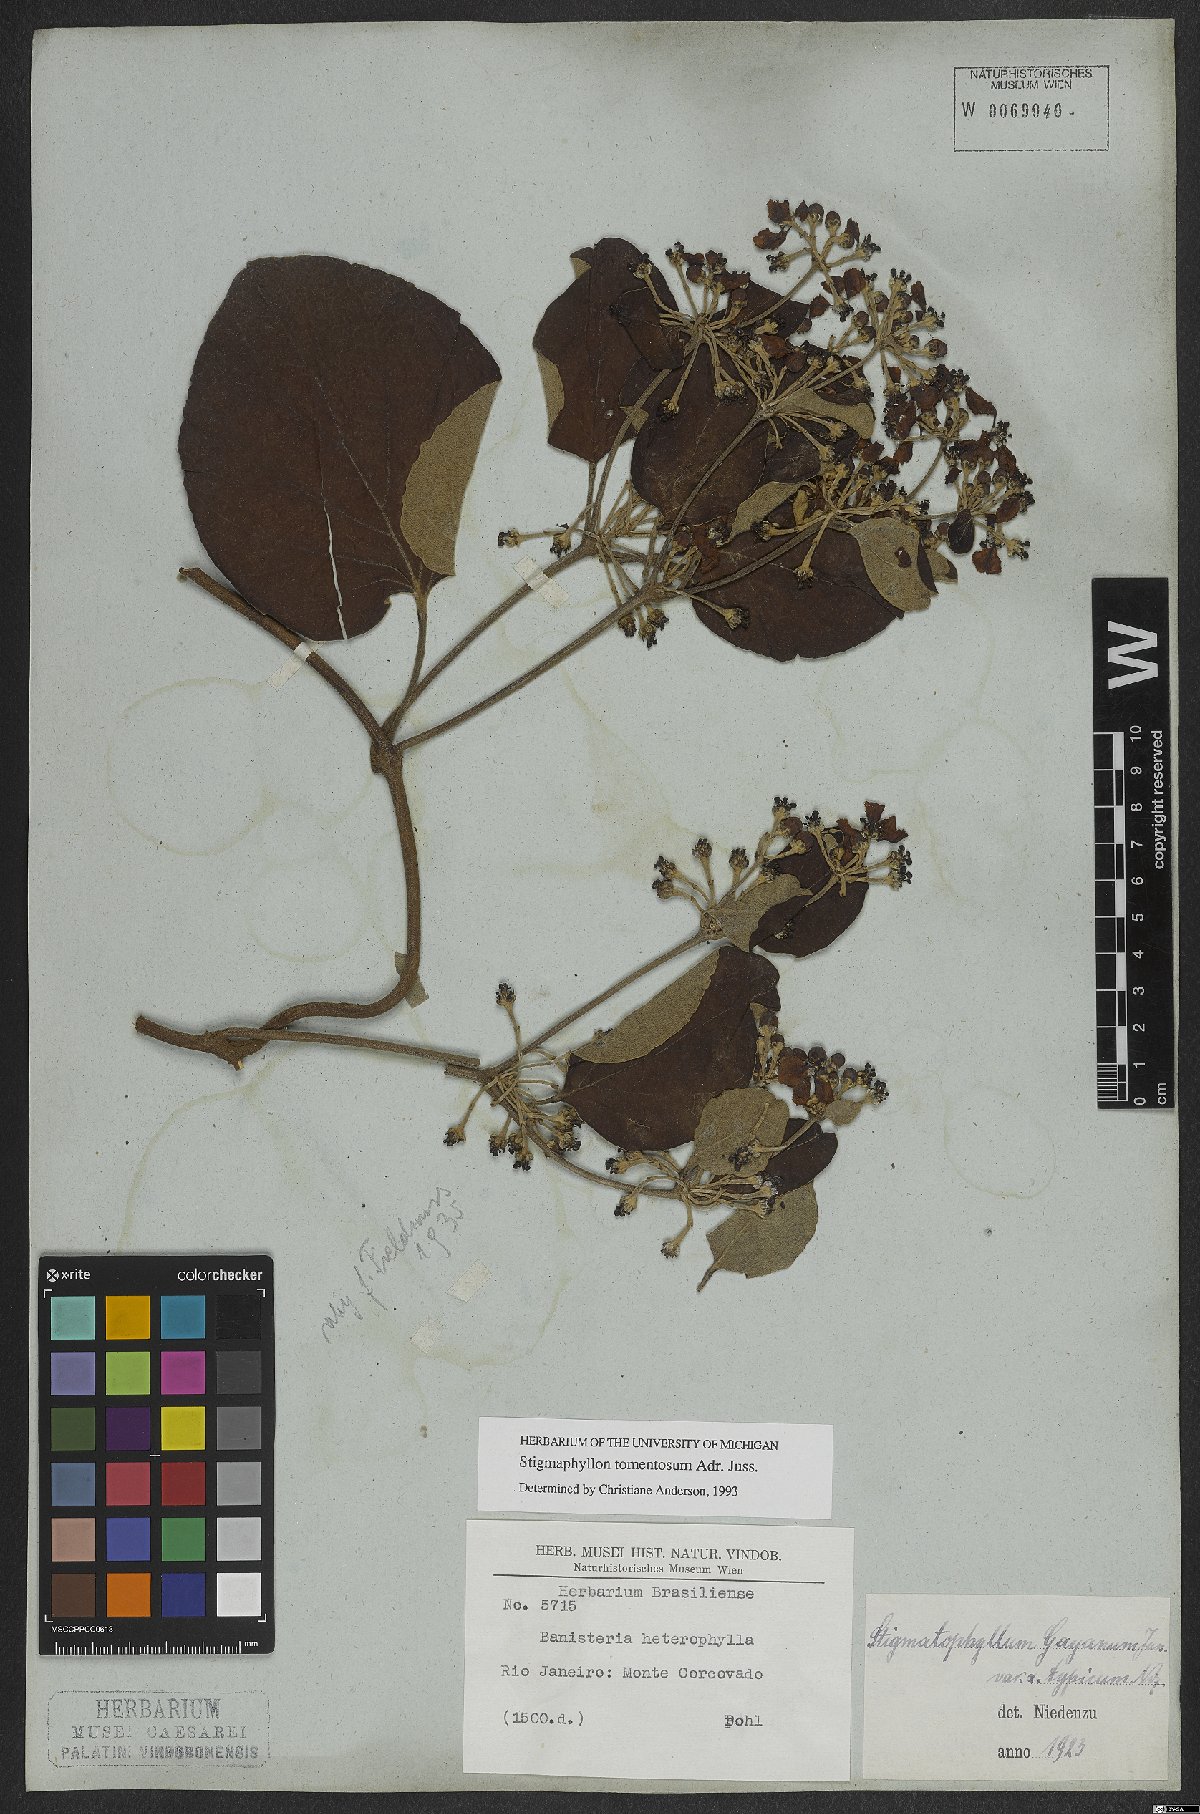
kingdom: Plantae
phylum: Tracheophyta
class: Magnoliopsida
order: Malpighiales
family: Malpighiaceae
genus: Stigmaphyllon
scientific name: Stigmaphyllon tomentosum
